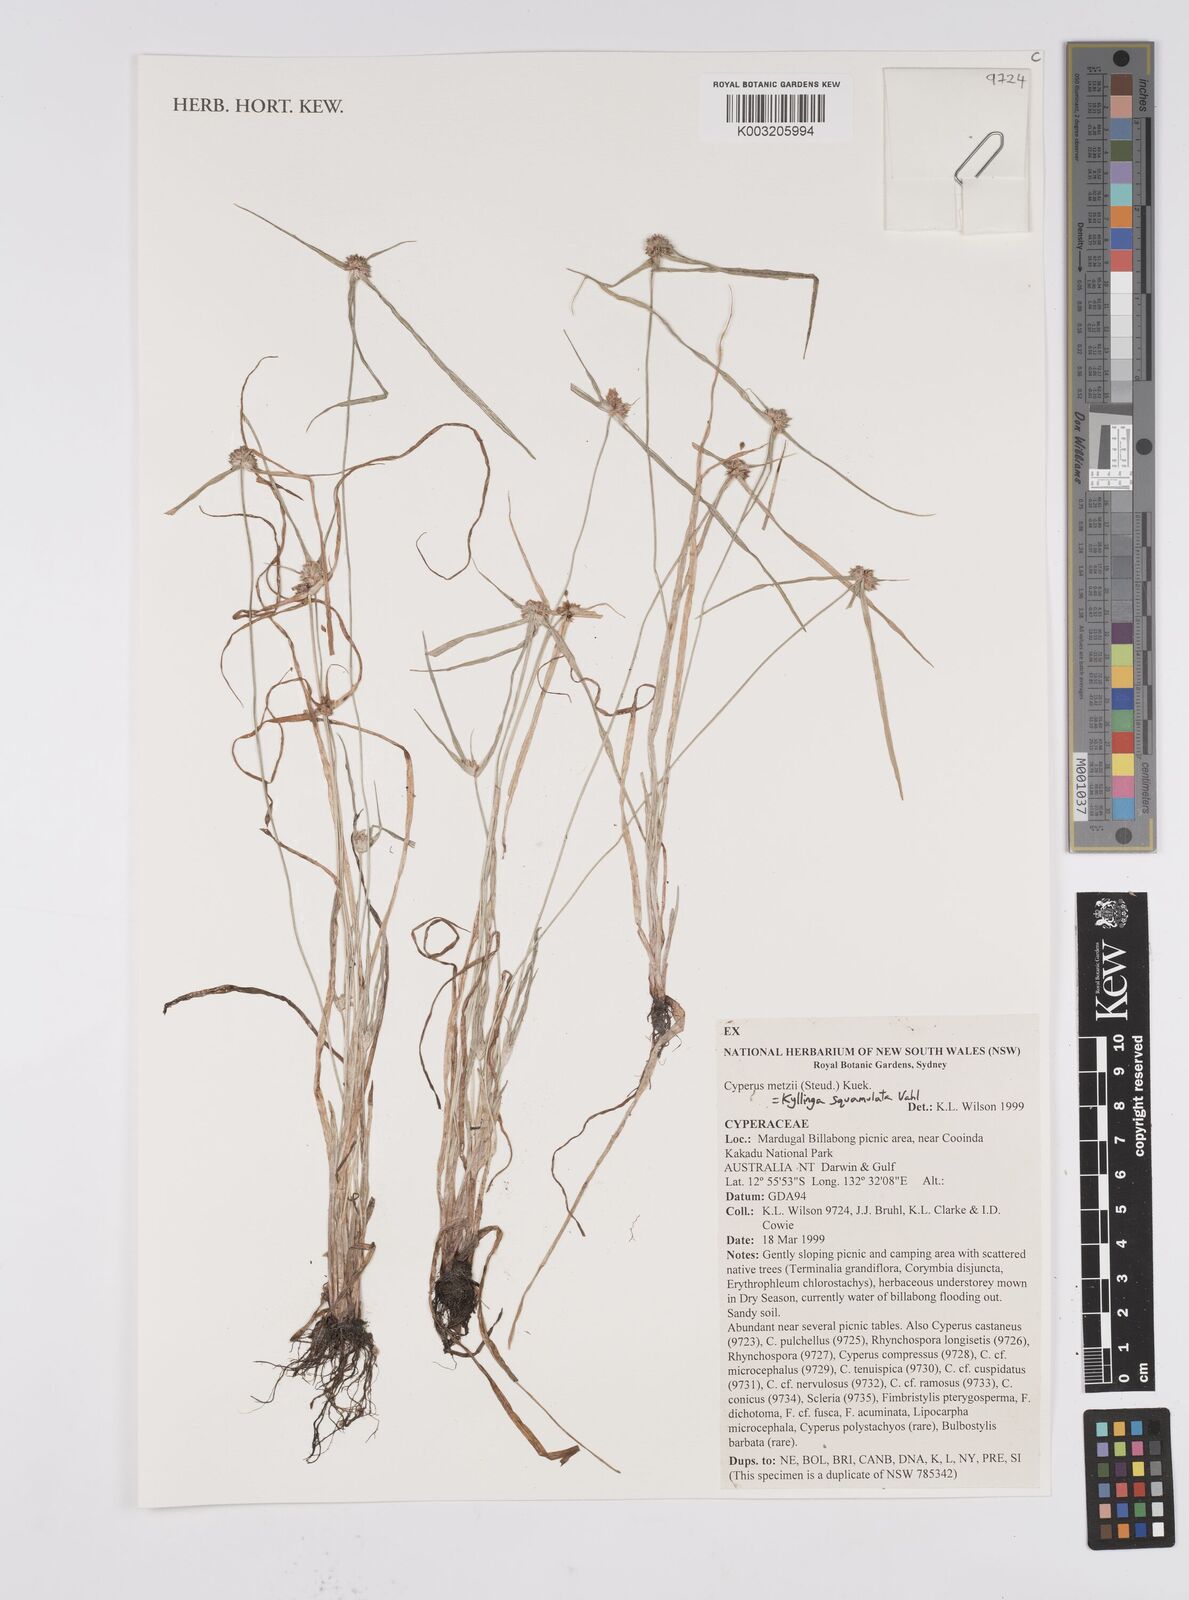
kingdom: Plantae
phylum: Tracheophyta
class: Liliopsida
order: Poales
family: Cyperaceae
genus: Cyperus
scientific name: Cyperus distans
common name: Slender cyperus
